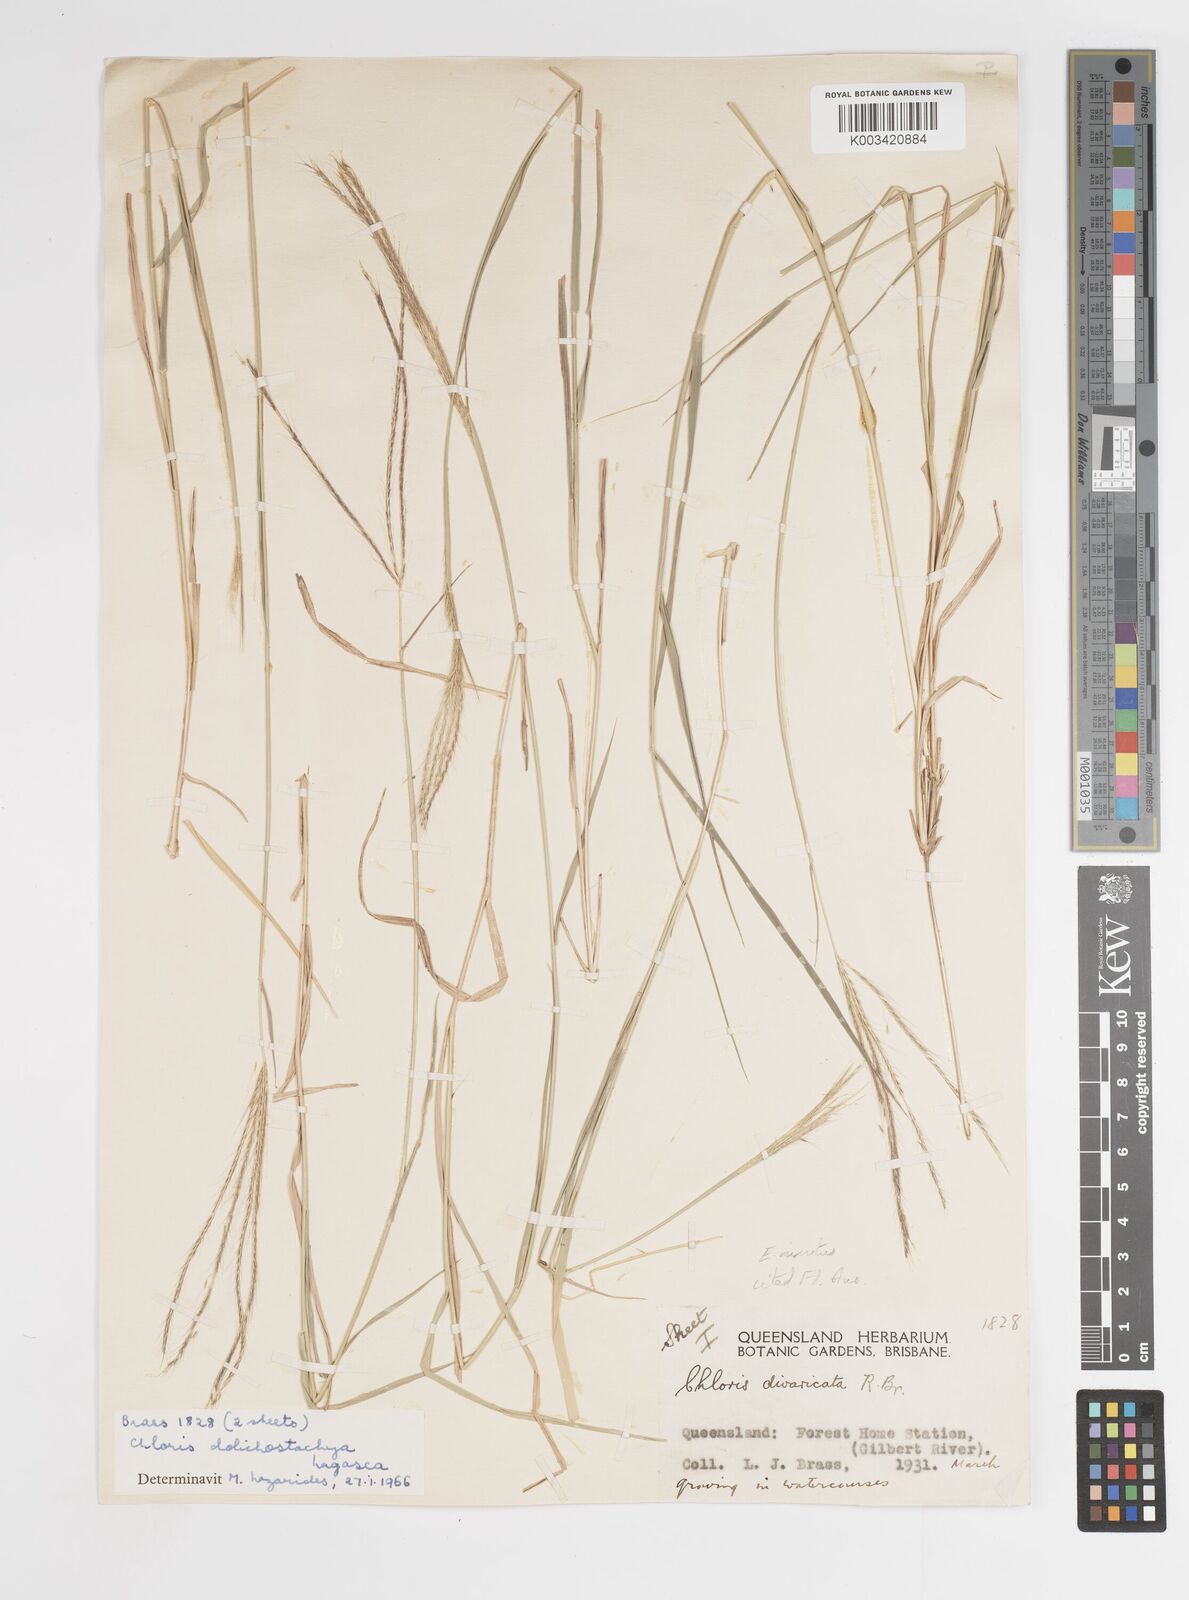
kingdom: Plantae
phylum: Tracheophyta
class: Liliopsida
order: Poales
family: Poaceae
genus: Enteropogon
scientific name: Enteropogon minutus
